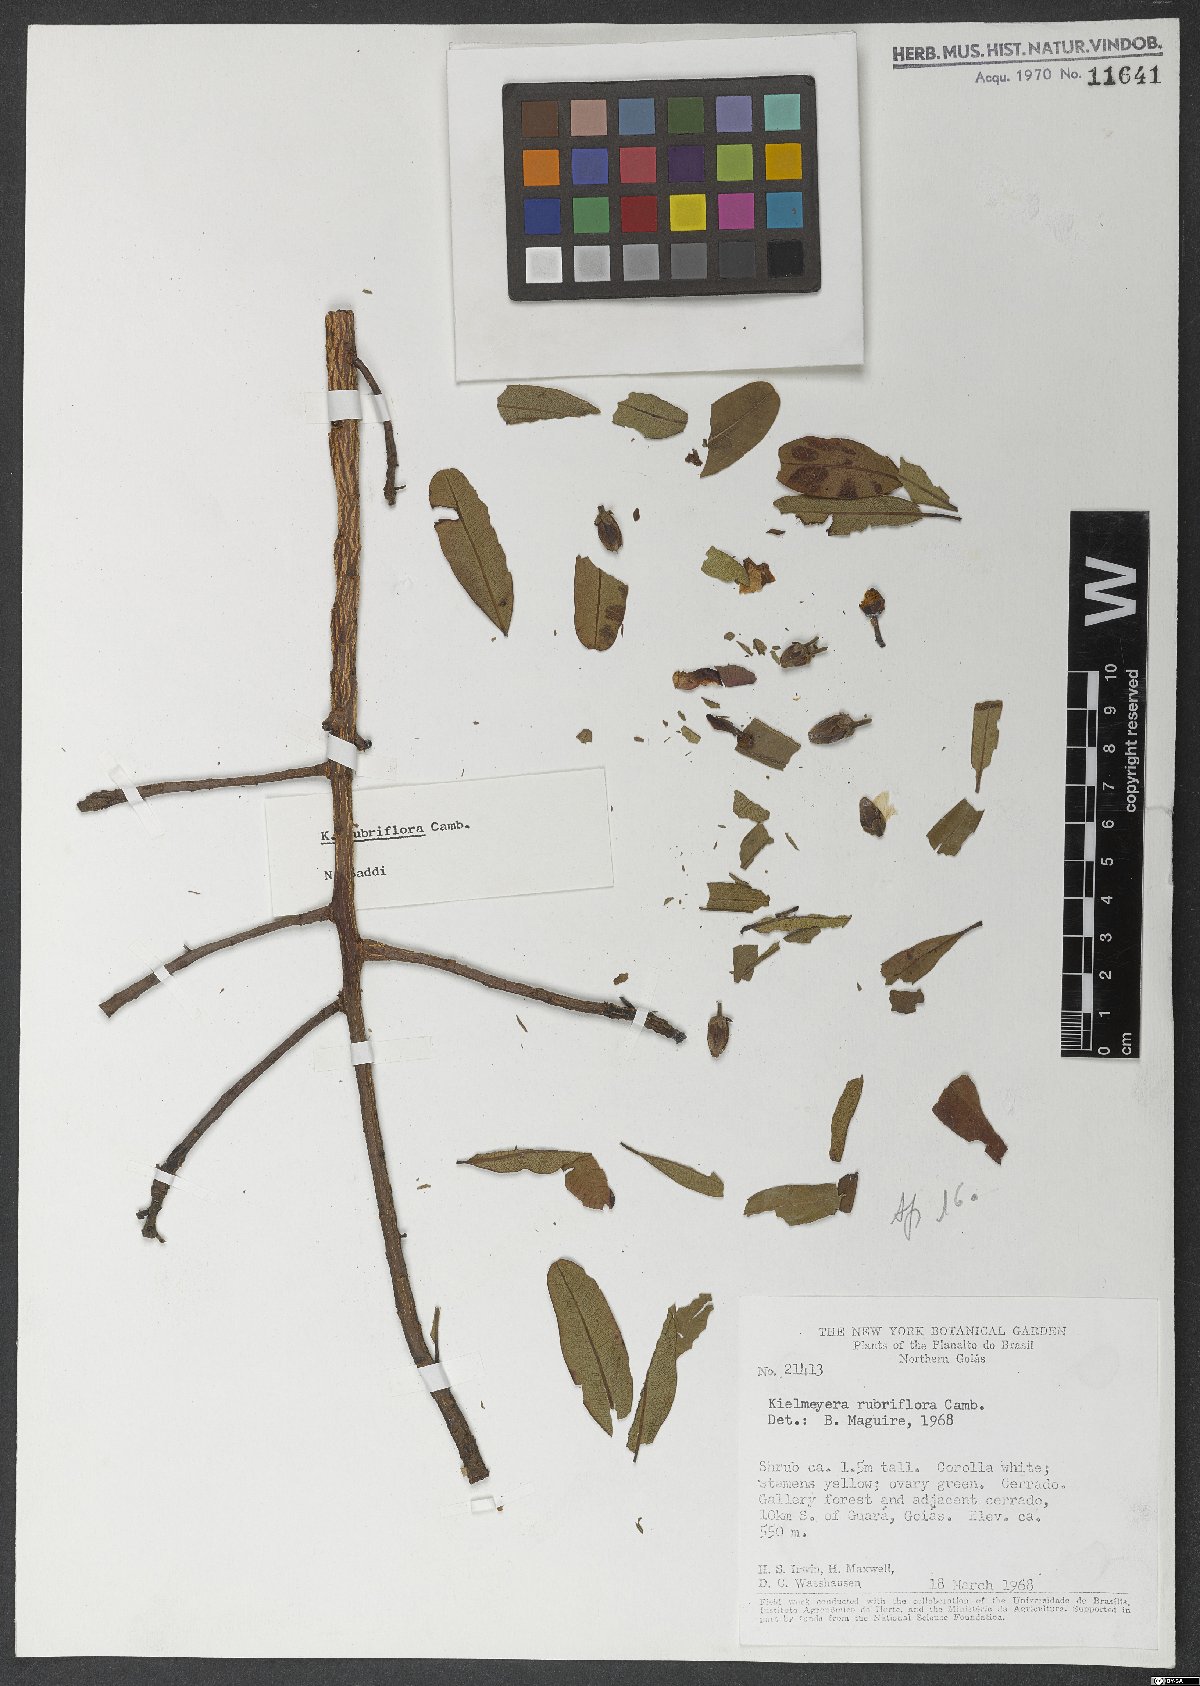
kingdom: Plantae
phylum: Tracheophyta
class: Magnoliopsida
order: Malpighiales
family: Calophyllaceae
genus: Kielmeyera
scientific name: Kielmeyera rubriflora
